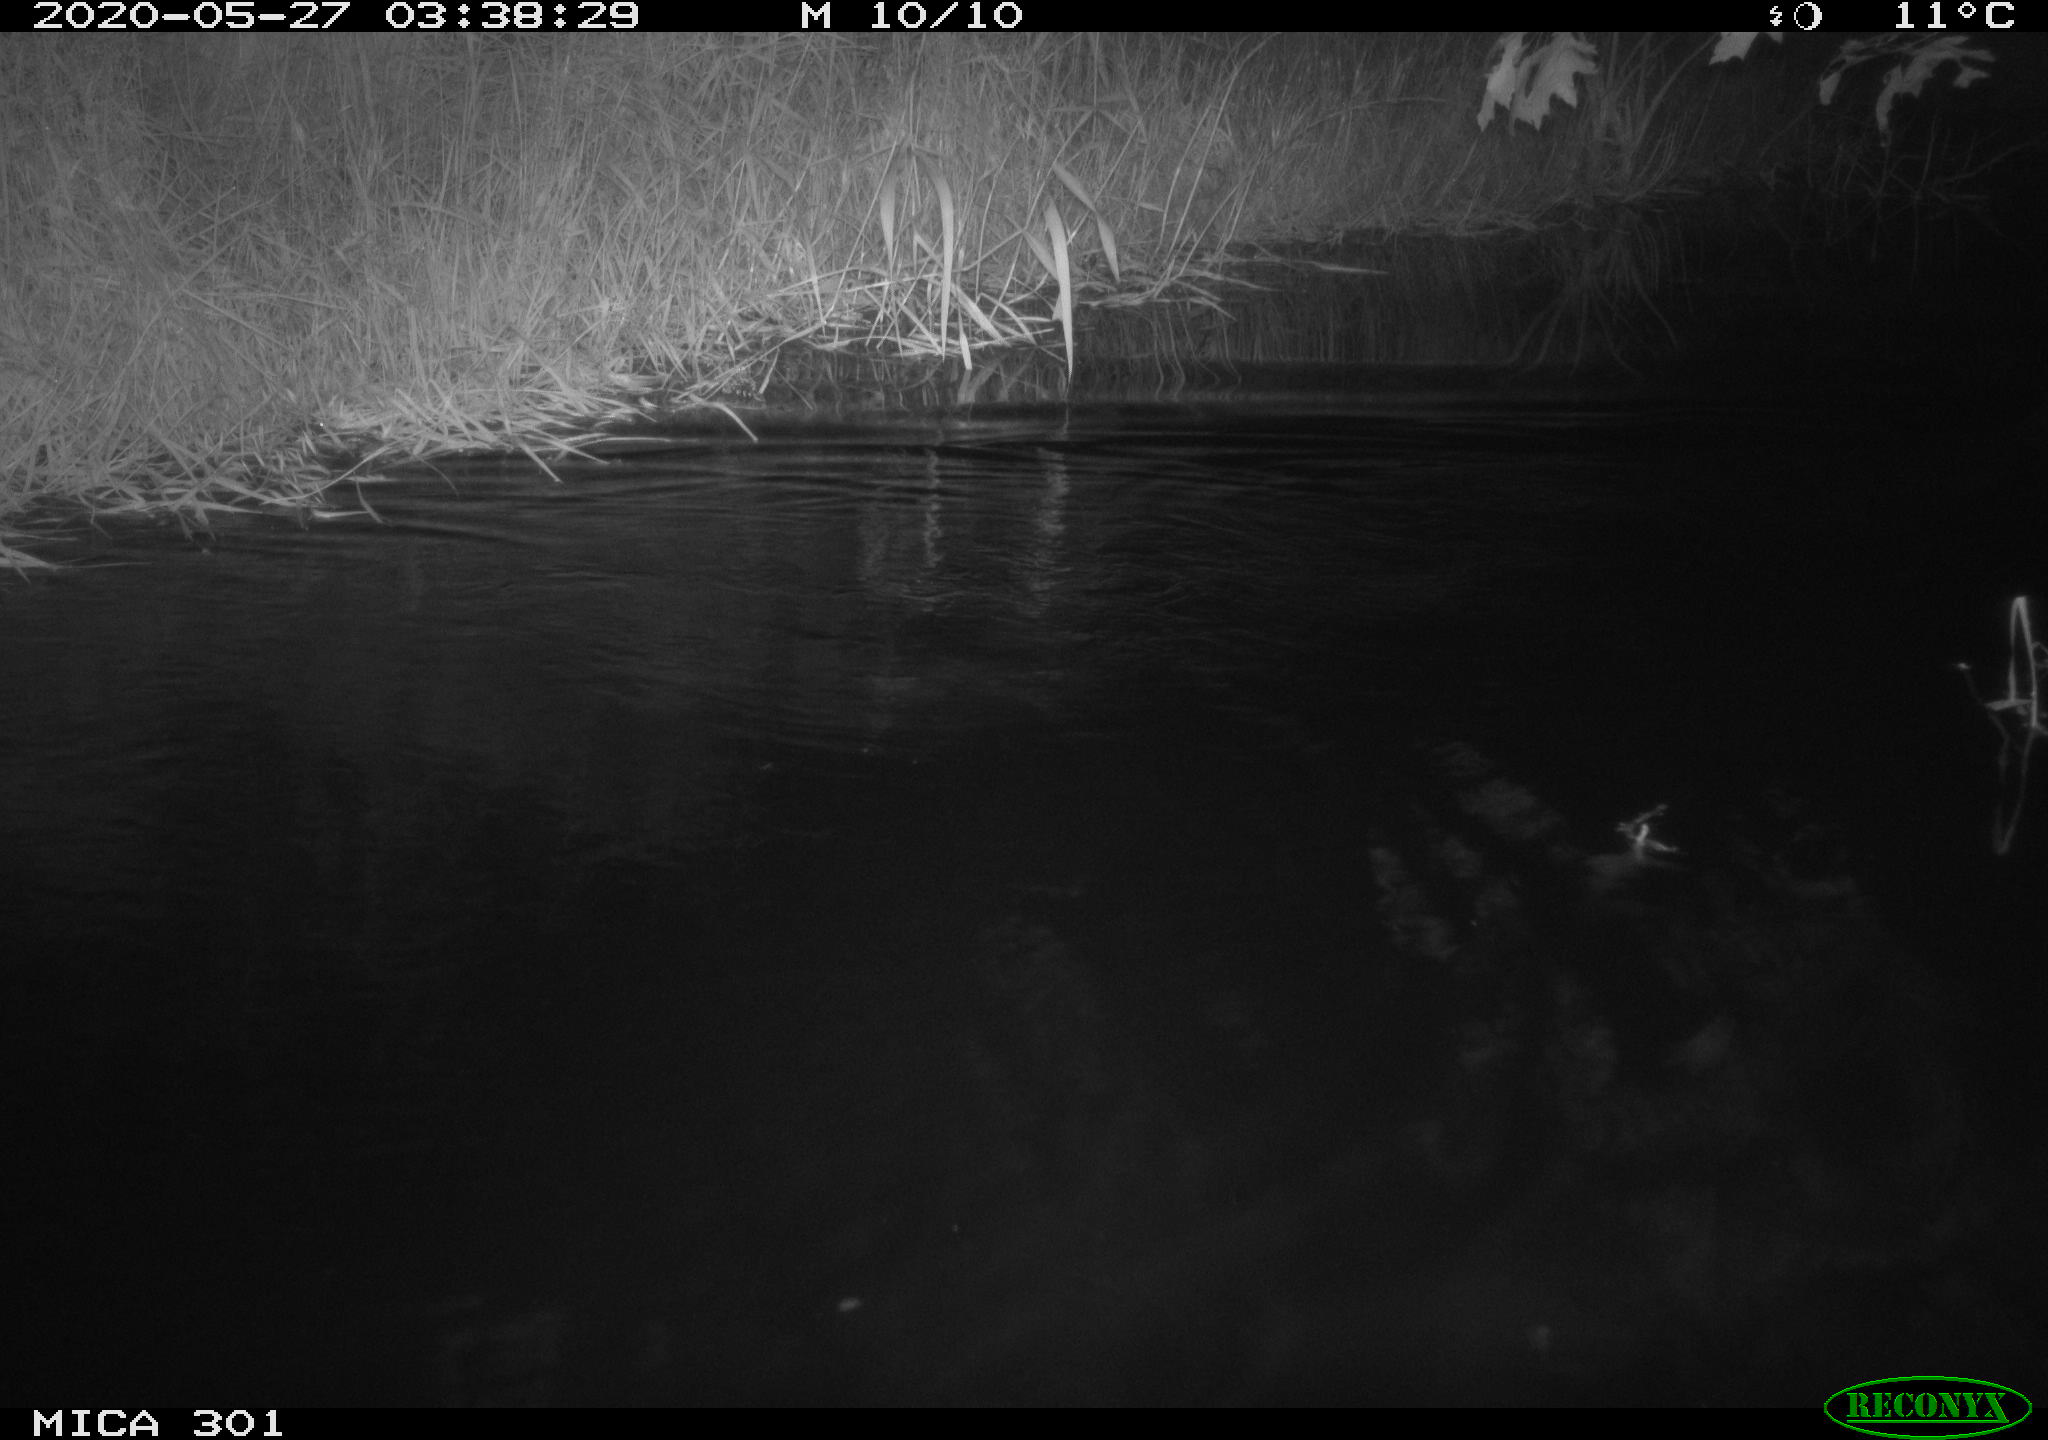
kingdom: Animalia
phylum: Chordata
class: Mammalia
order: Rodentia
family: Castoridae
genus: Castor
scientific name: Castor fiber
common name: Eurasian beaver
